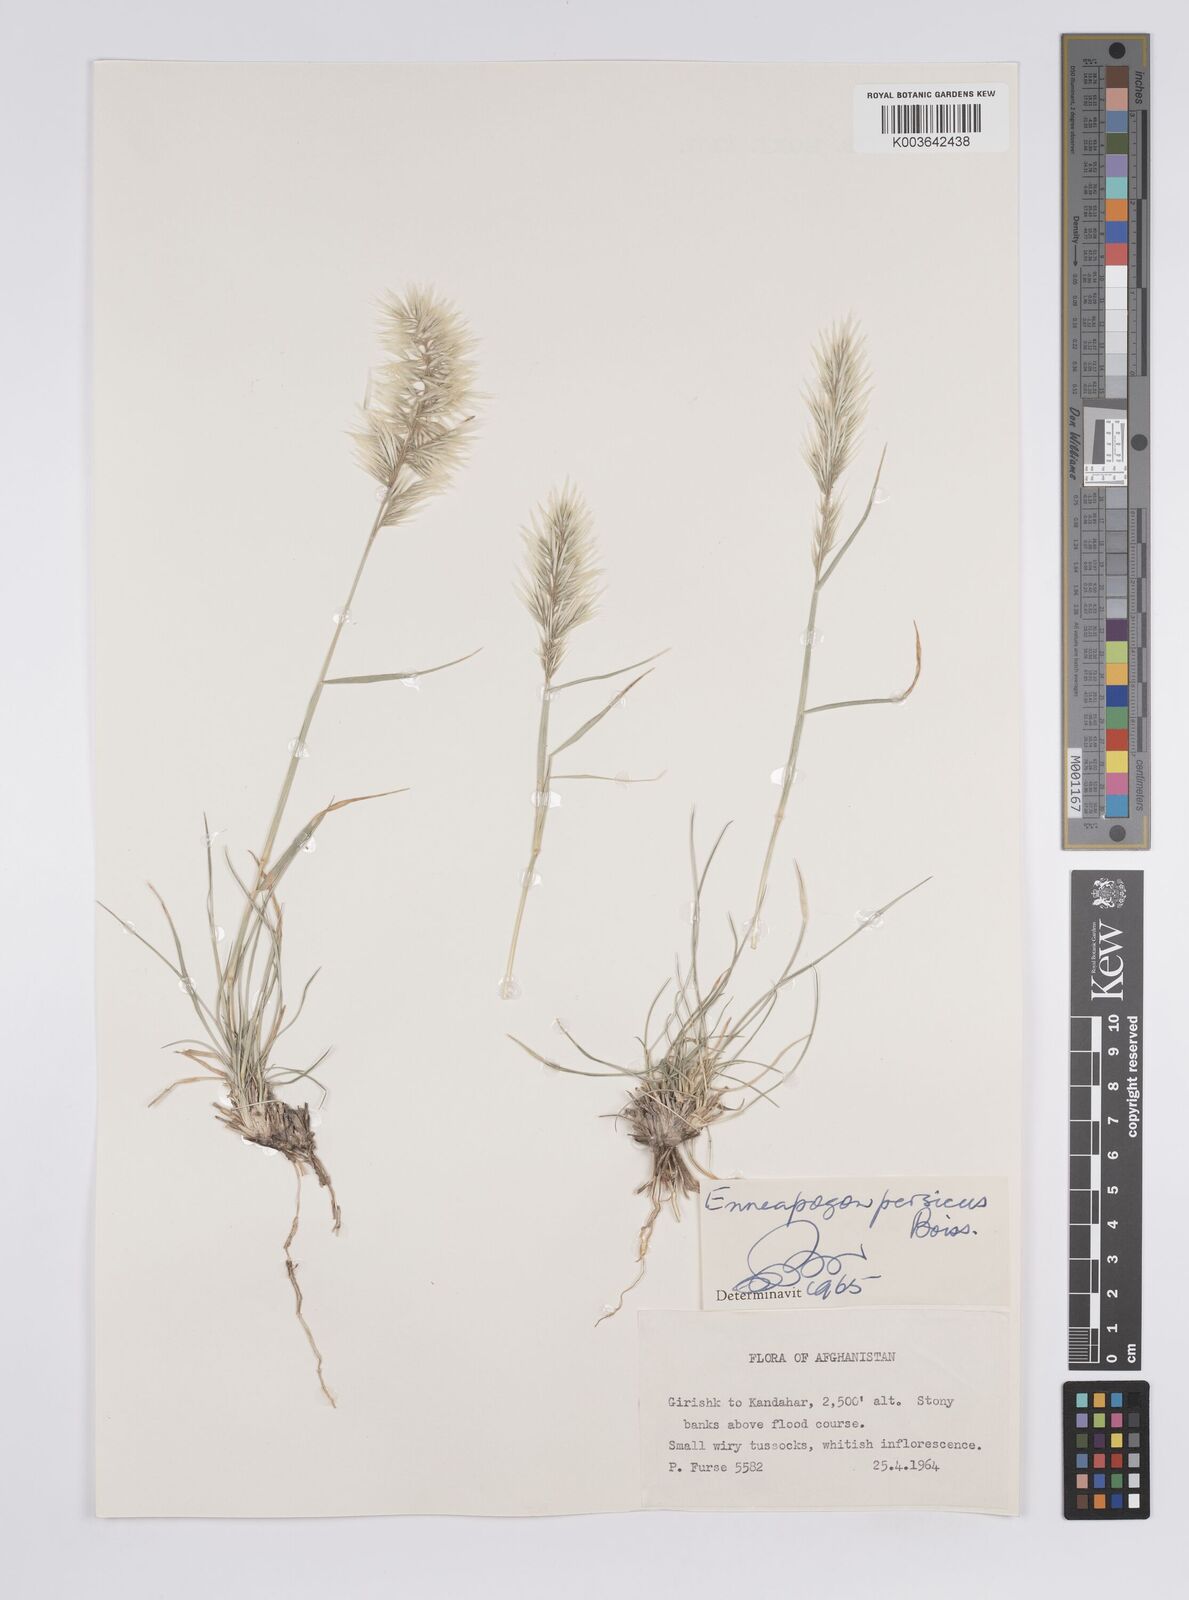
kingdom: Plantae
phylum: Tracheophyta
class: Liliopsida
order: Poales
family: Poaceae
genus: Enneapogon
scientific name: Enneapogon persicus
